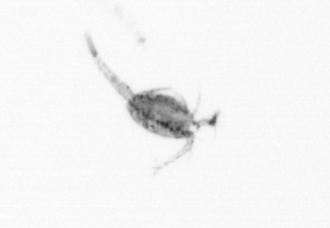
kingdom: Animalia
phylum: Arthropoda
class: Copepoda
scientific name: Copepoda
